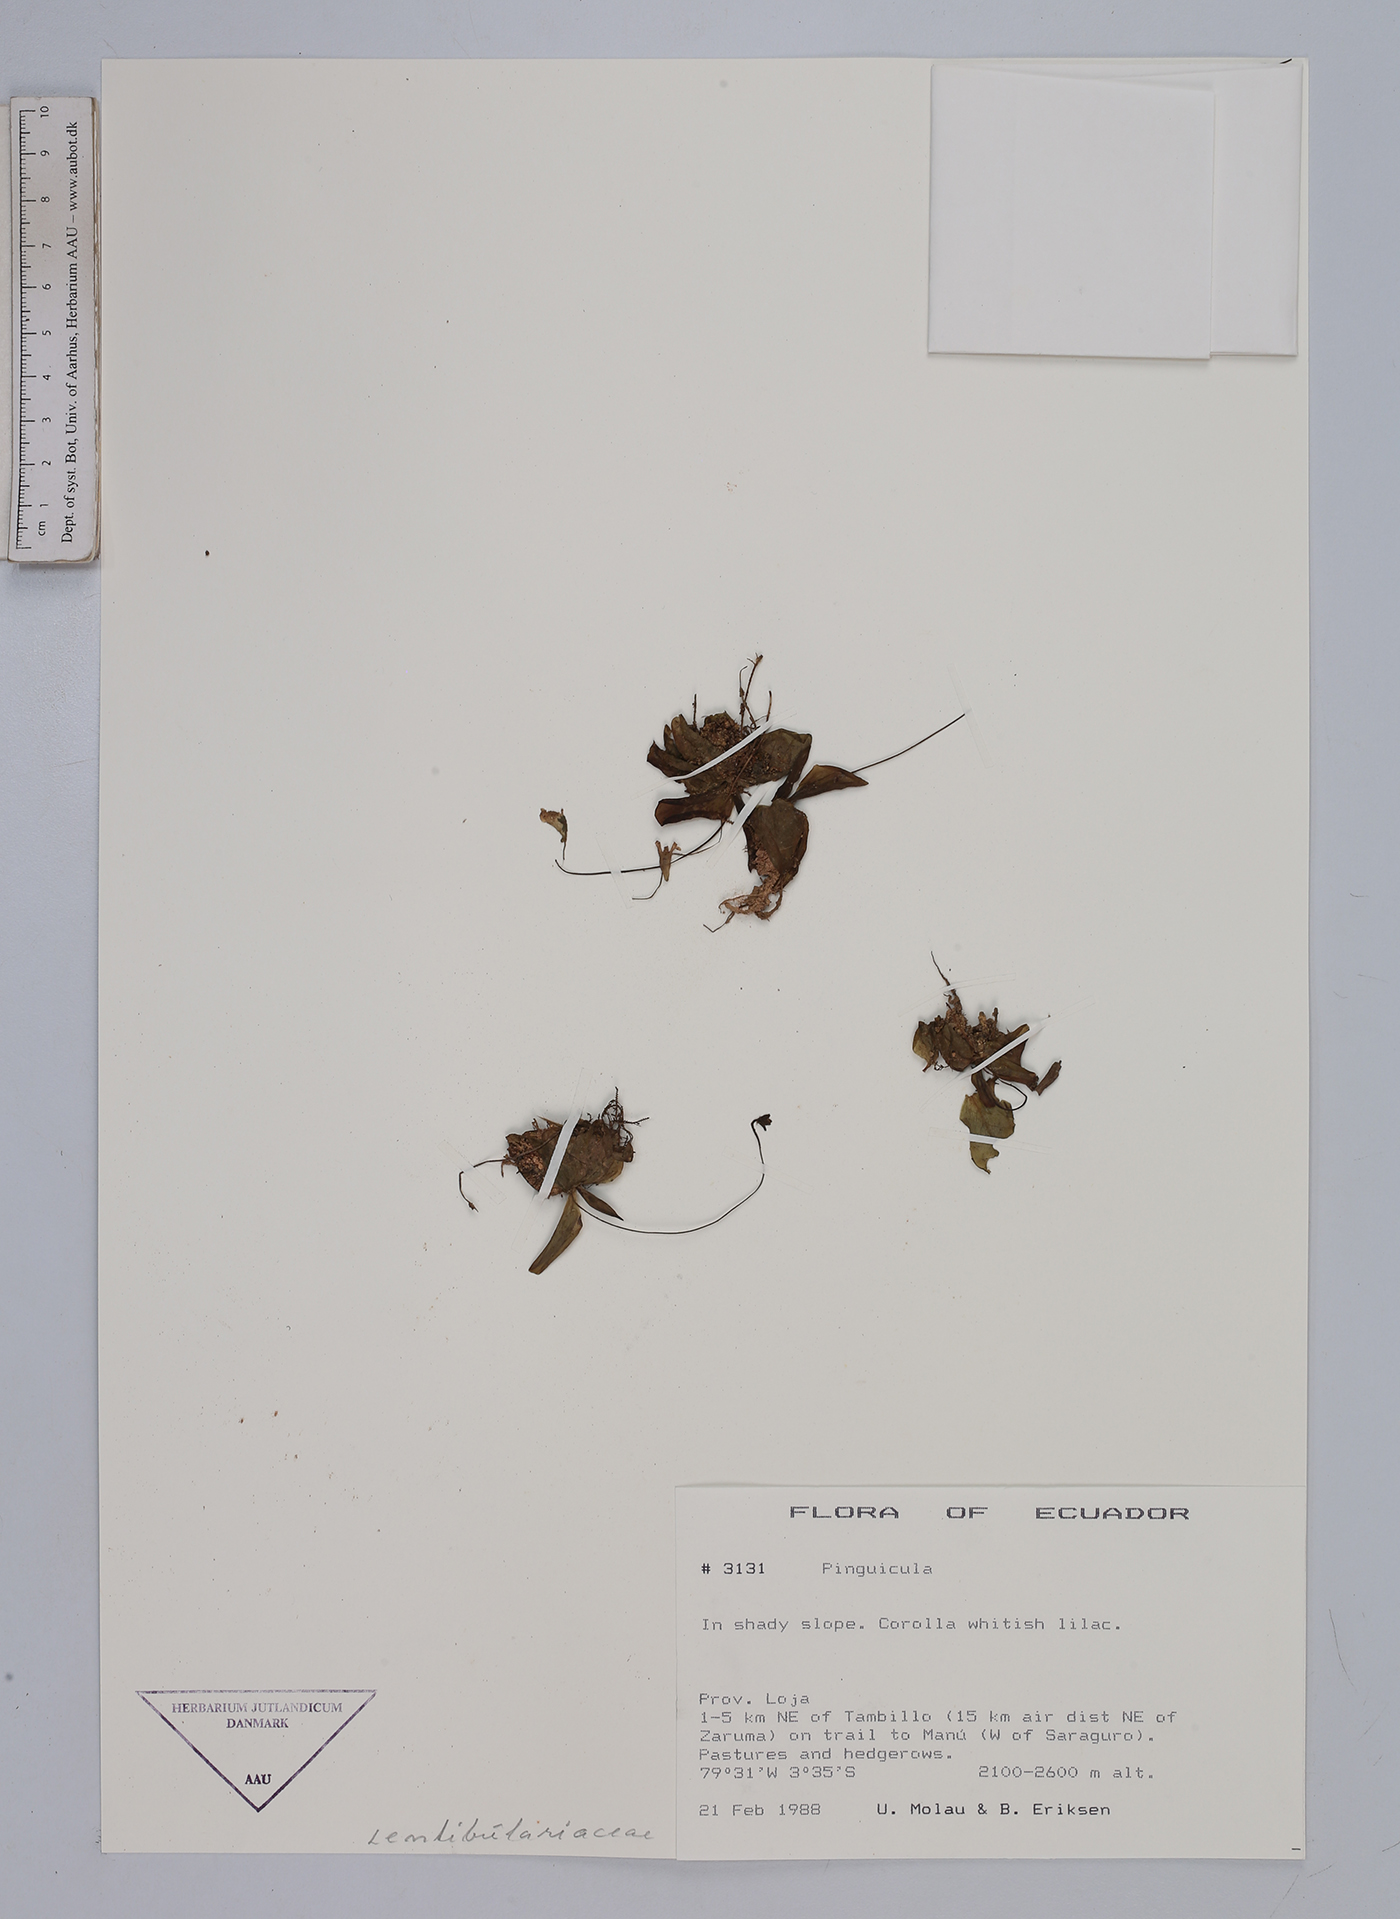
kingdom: Plantae
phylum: Tracheophyta
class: Magnoliopsida
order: Lamiales
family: Lentibulariaceae
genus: Pinguicula
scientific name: Pinguicula
